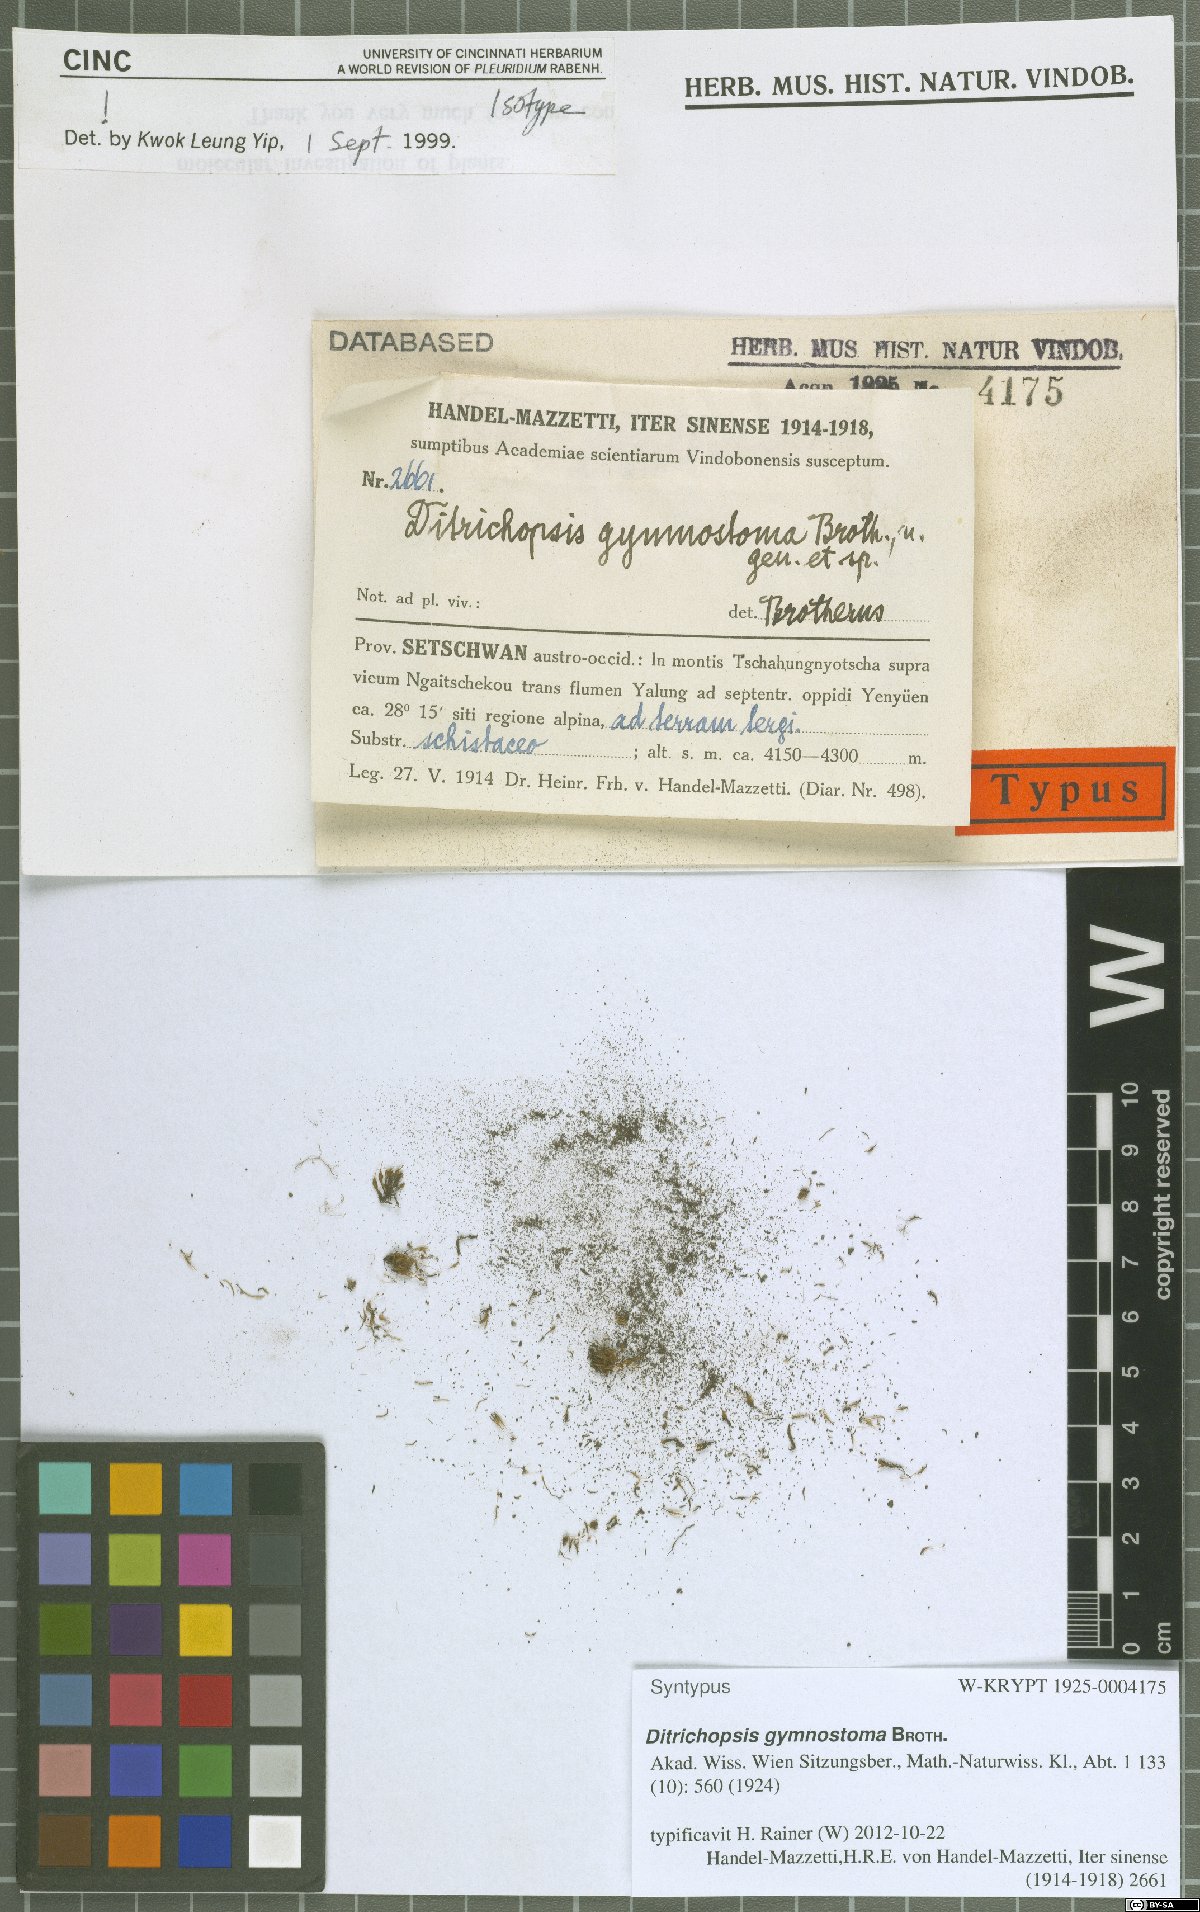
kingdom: Plantae
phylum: Bryophyta
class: Bryopsida
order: Dicranales
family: Ditrichaceae
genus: Ditrichopsis
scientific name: Ditrichopsis gymnostoma
